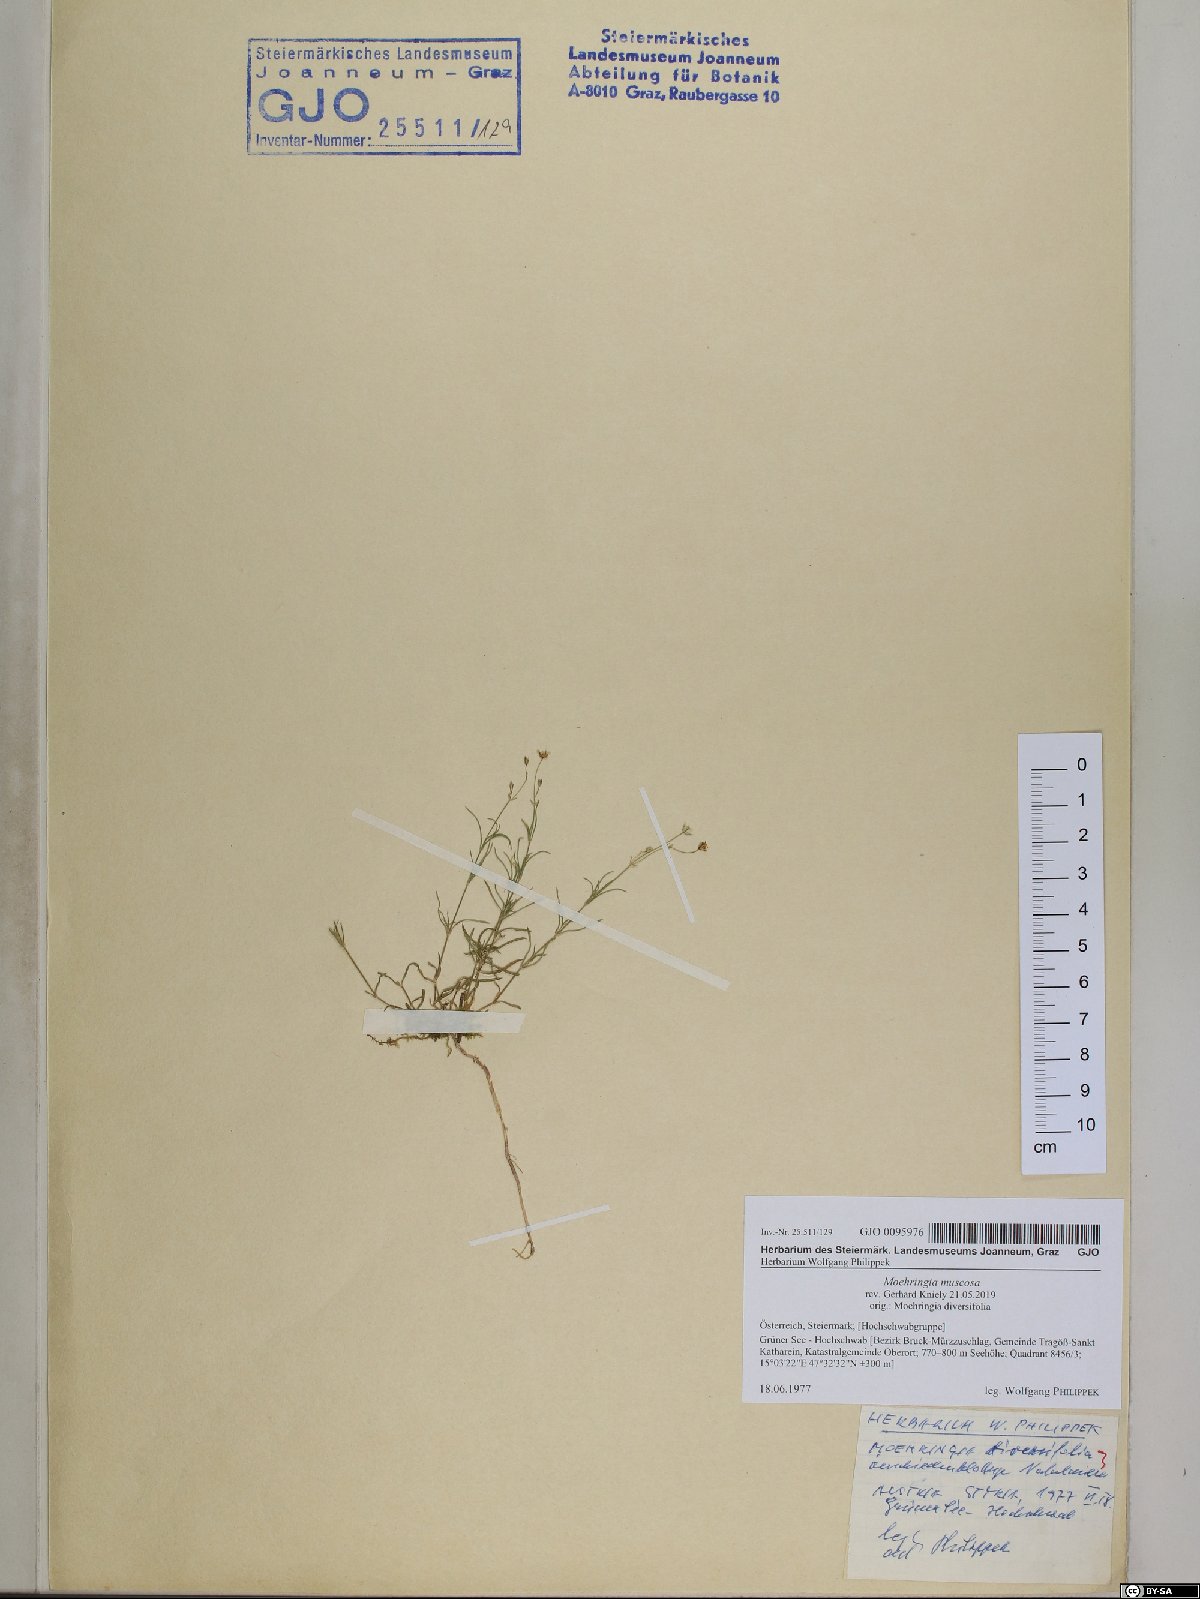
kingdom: Plantae
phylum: Tracheophyta
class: Magnoliopsida
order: Caryophyllales
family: Caryophyllaceae
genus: Moehringia
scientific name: Moehringia muscosa
